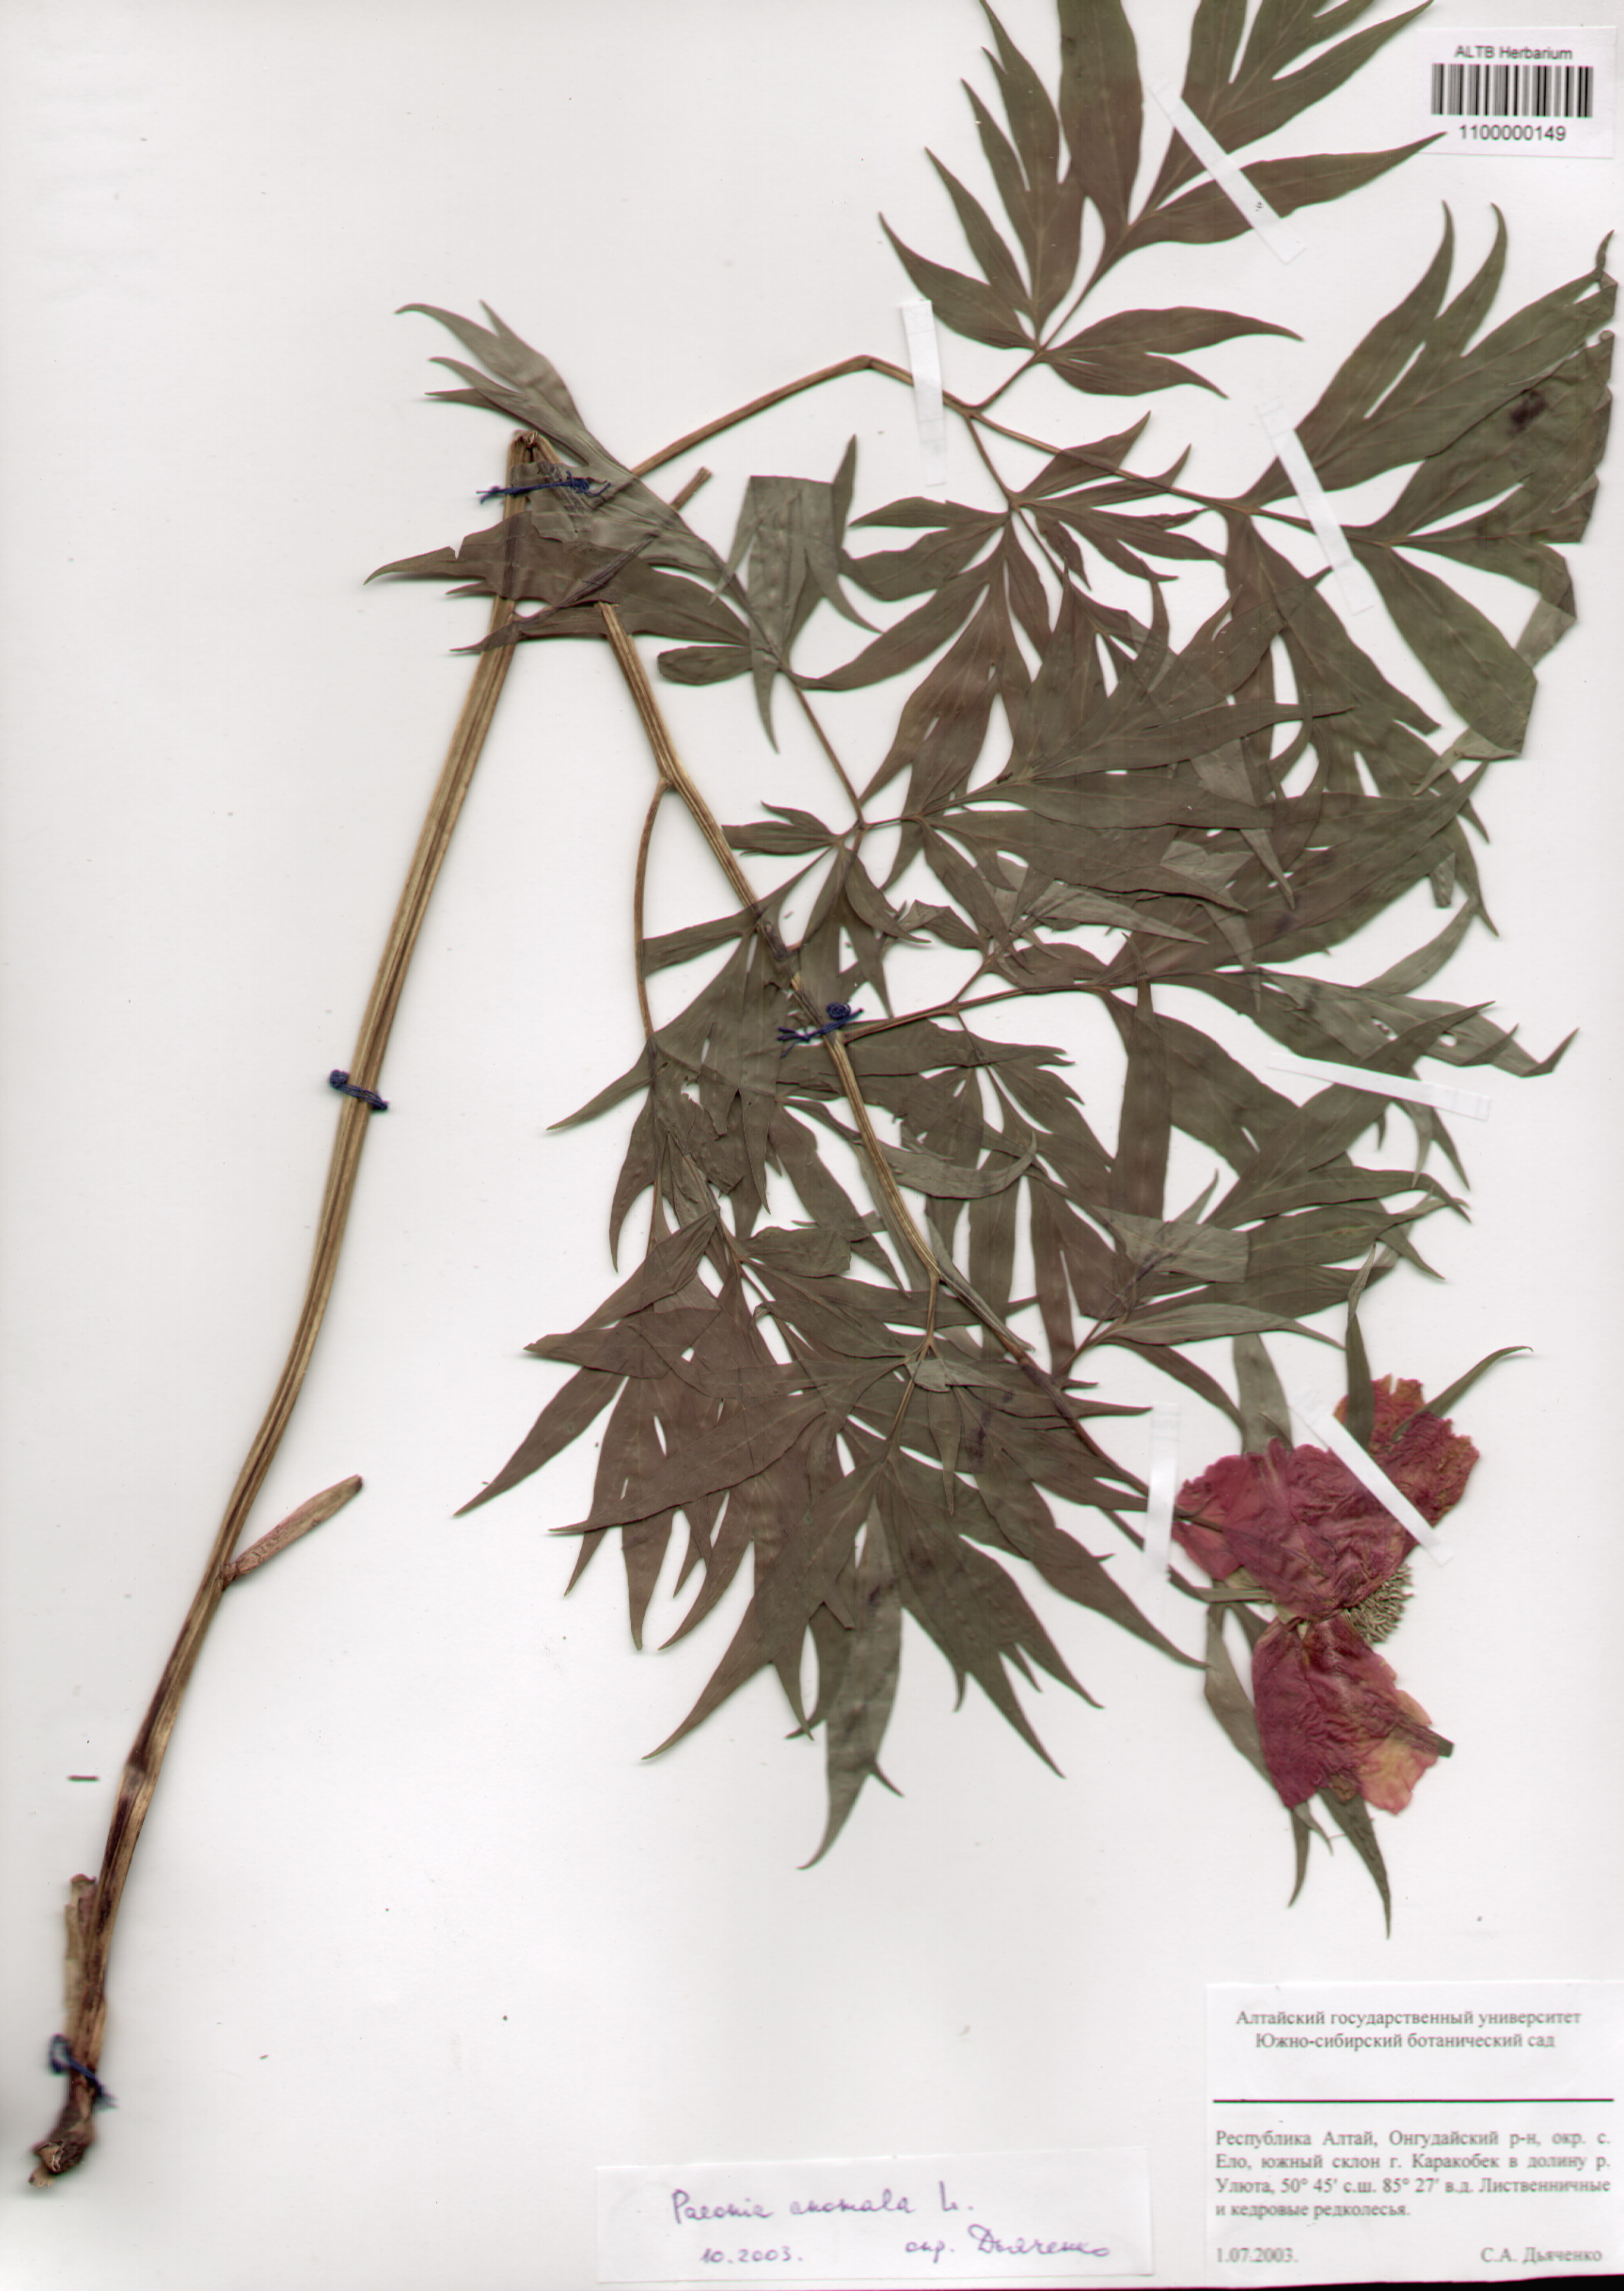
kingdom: Plantae
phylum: Tracheophyta
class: Magnoliopsida
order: Saxifragales
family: Paeoniaceae
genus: Paeonia
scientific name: Paeonia anomala
